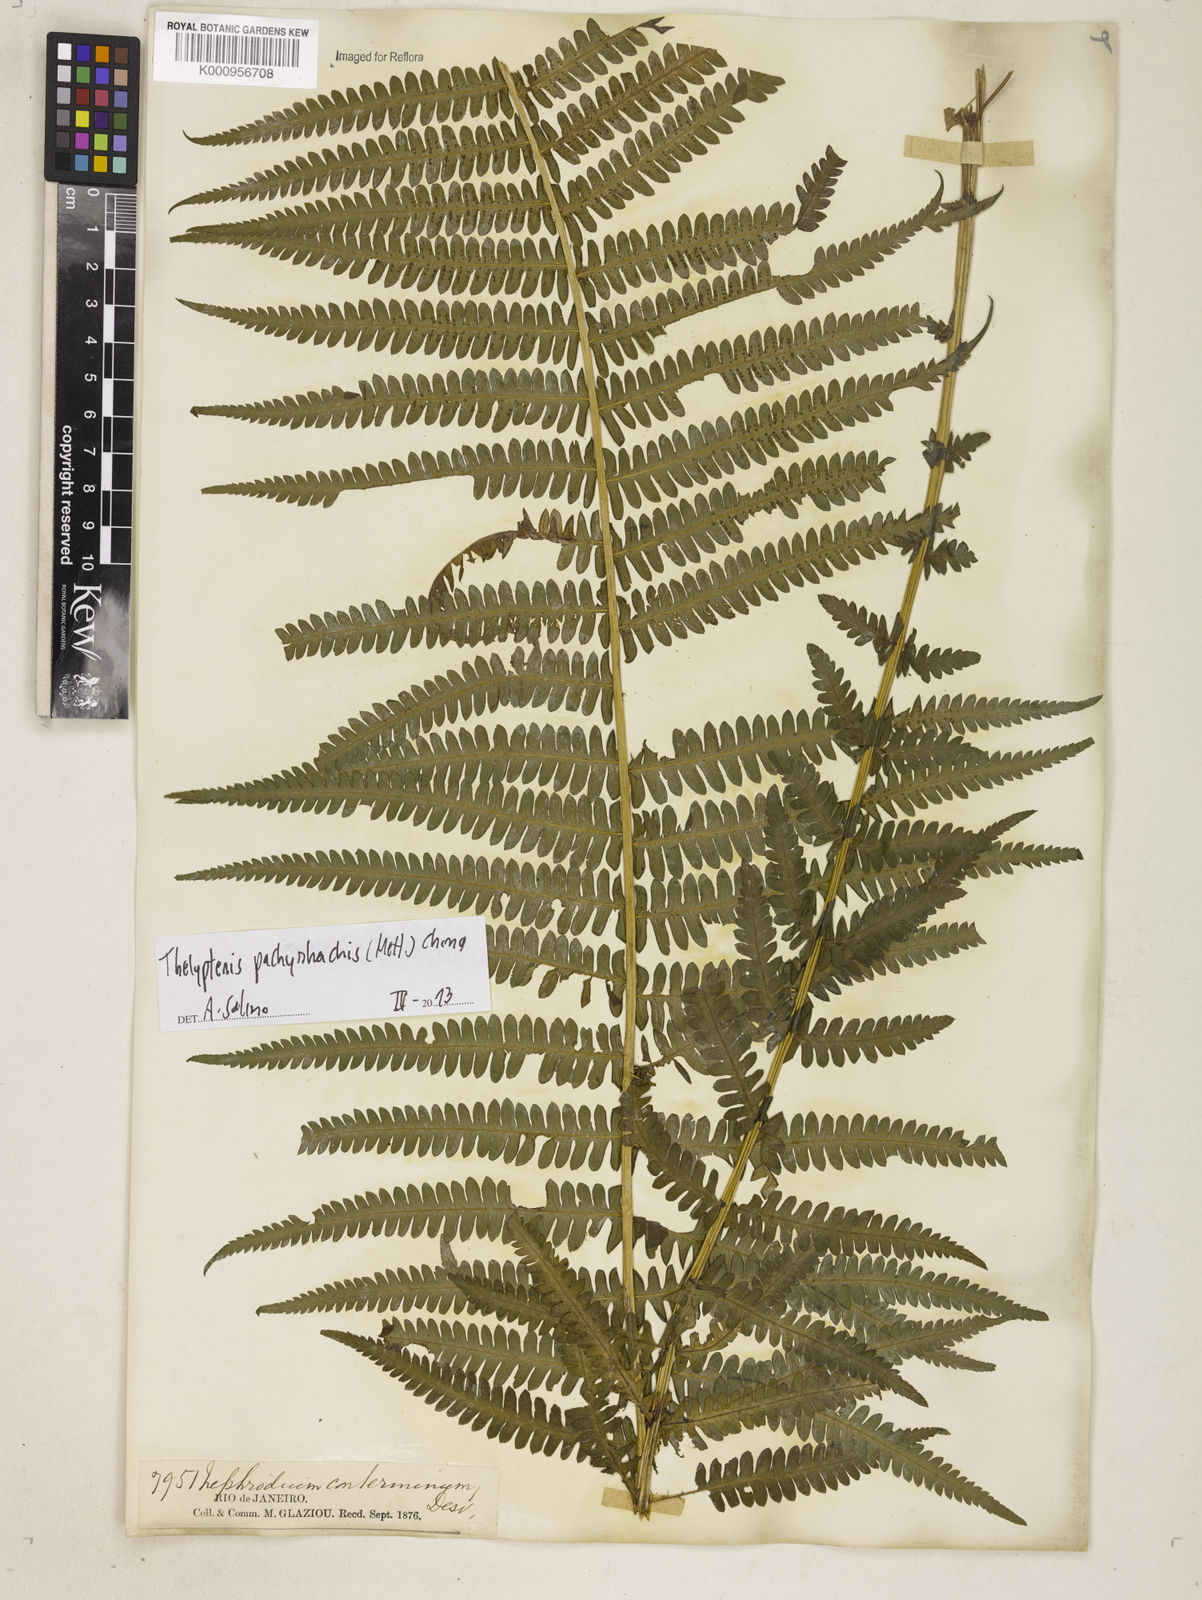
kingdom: Plantae
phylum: Tracheophyta
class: Polypodiopsida
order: Polypodiales
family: Thelypteridaceae
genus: Amauropelta
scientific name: Amauropelta pachyrhachis
